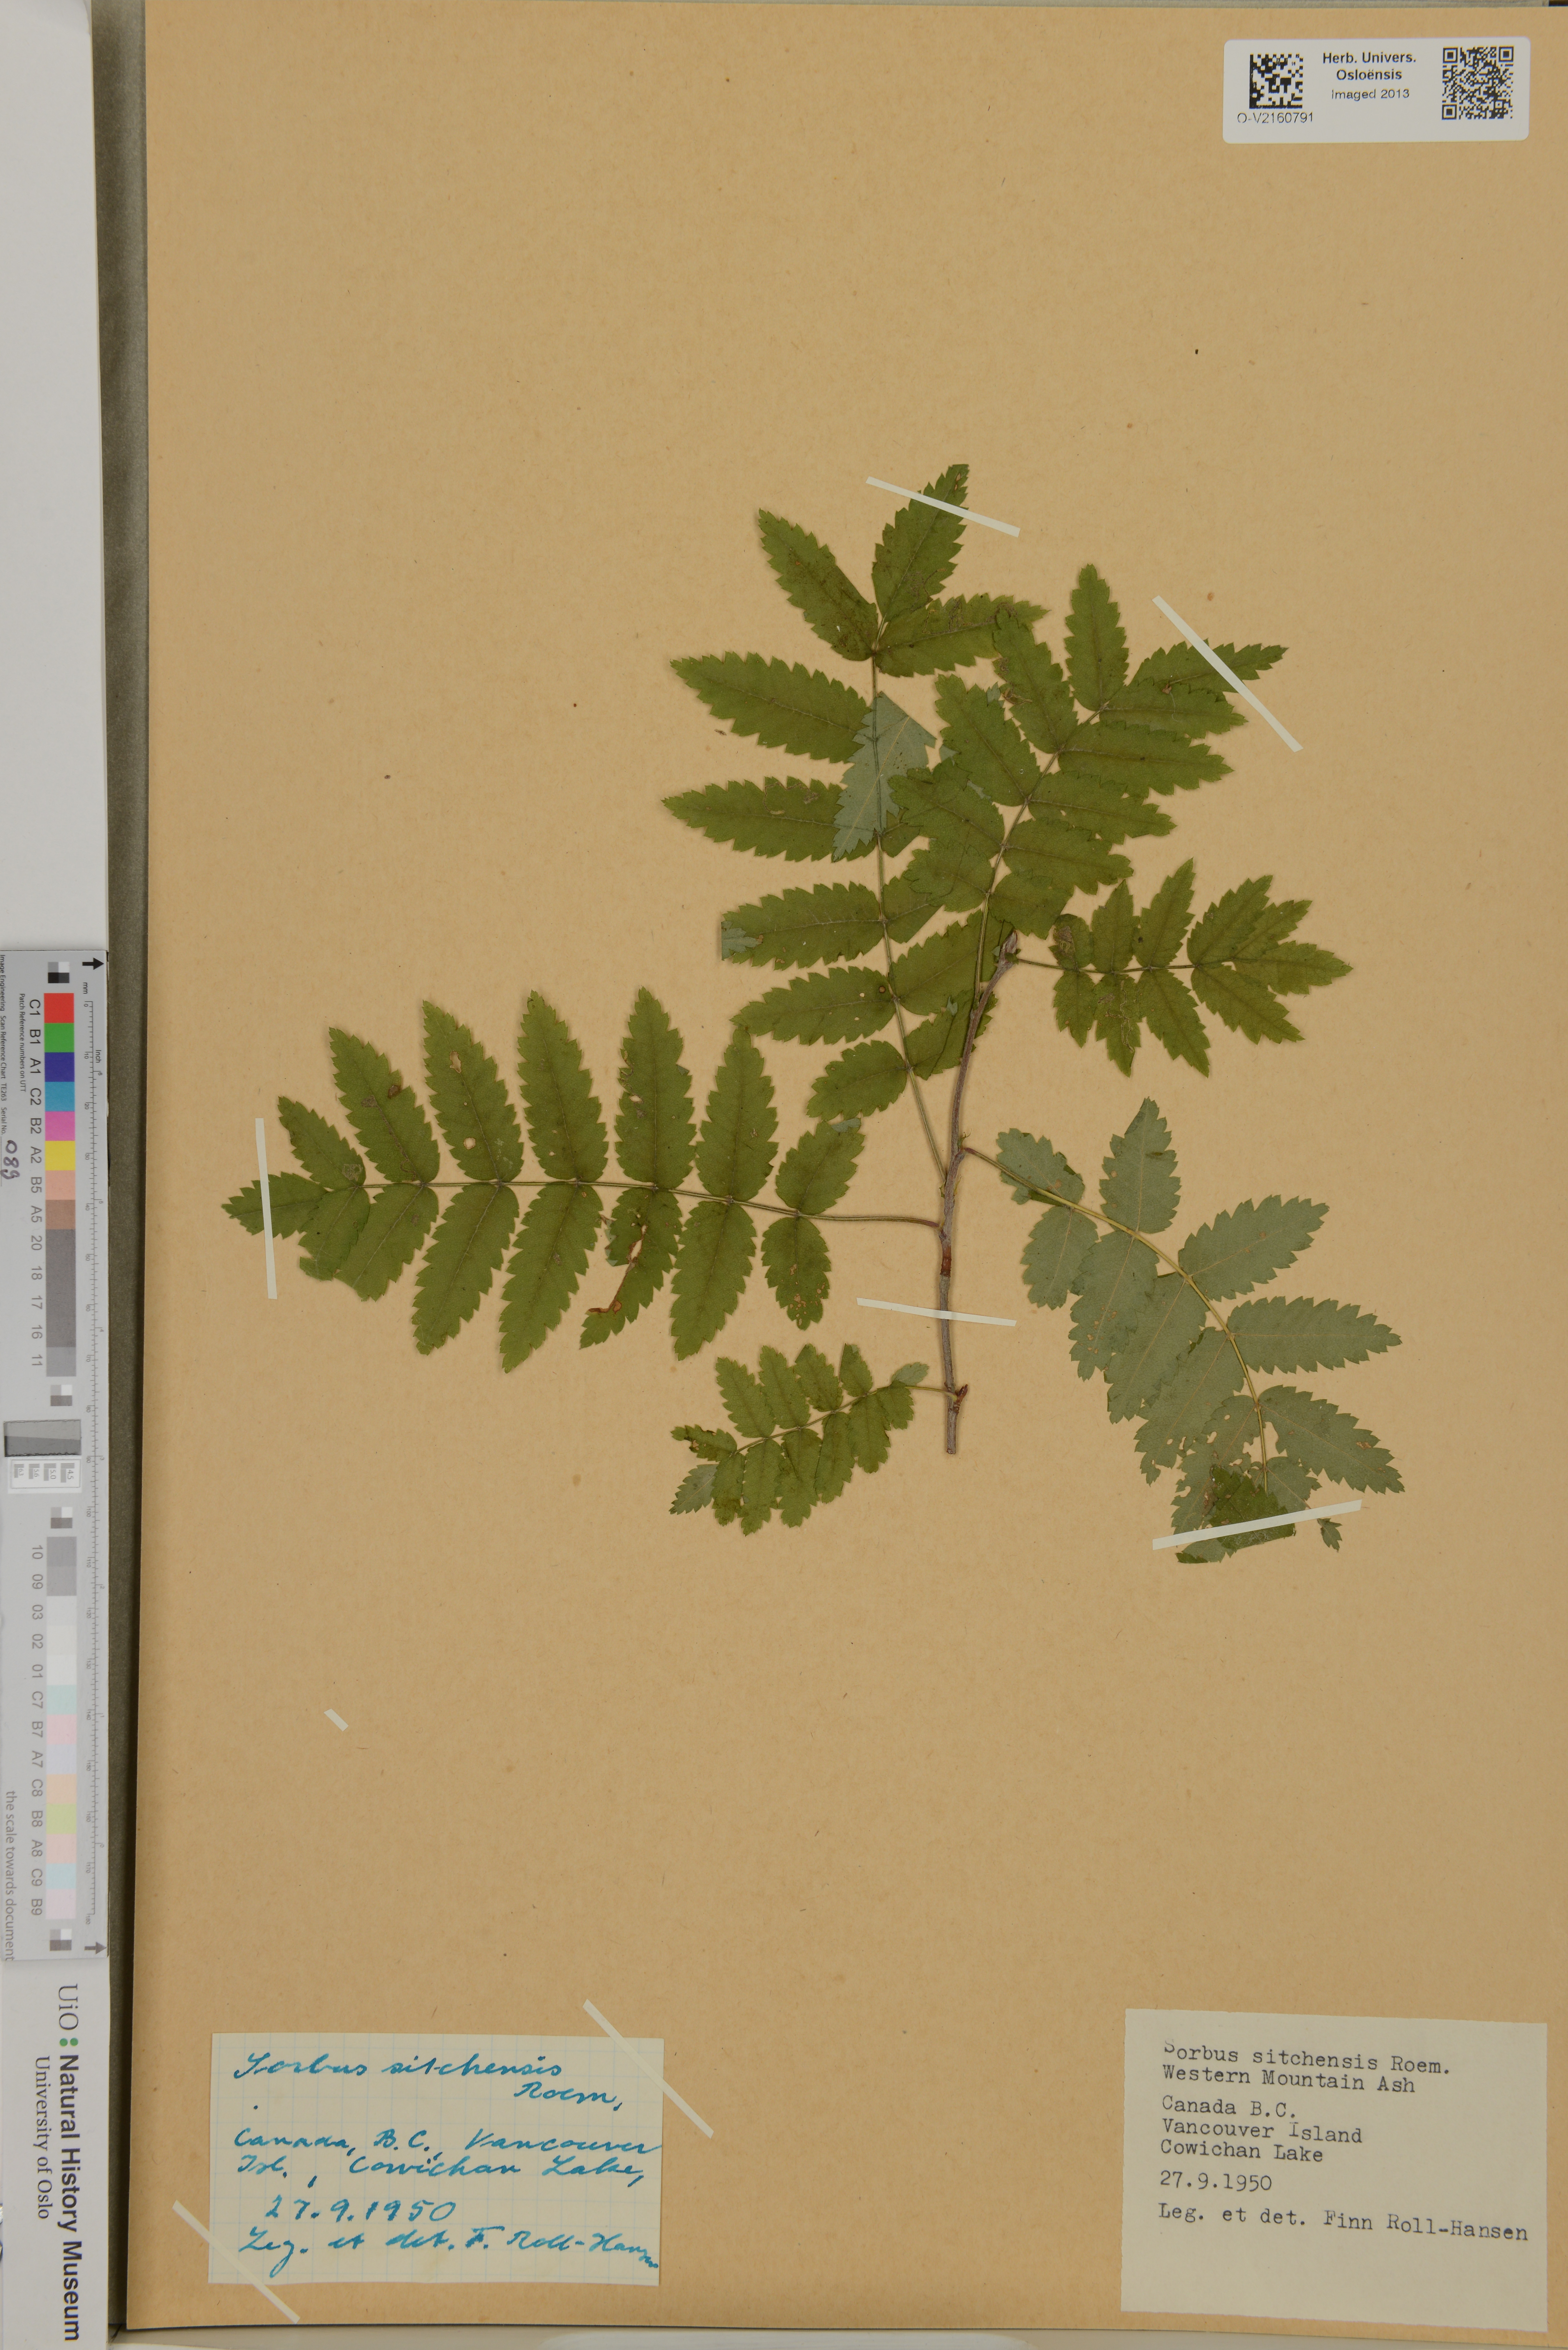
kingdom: Plantae
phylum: Tracheophyta
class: Magnoliopsida
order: Rosales
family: Rosaceae
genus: Sorbus
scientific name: Sorbus sitchensis
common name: Sitka mountain-ash
